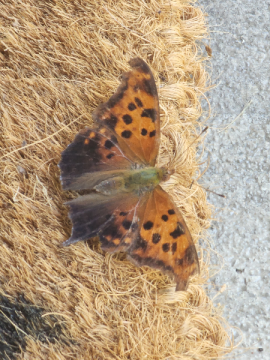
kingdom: Animalia
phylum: Arthropoda
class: Insecta
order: Lepidoptera
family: Nymphalidae
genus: Polygonia
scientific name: Polygonia interrogationis
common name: Question Mark
